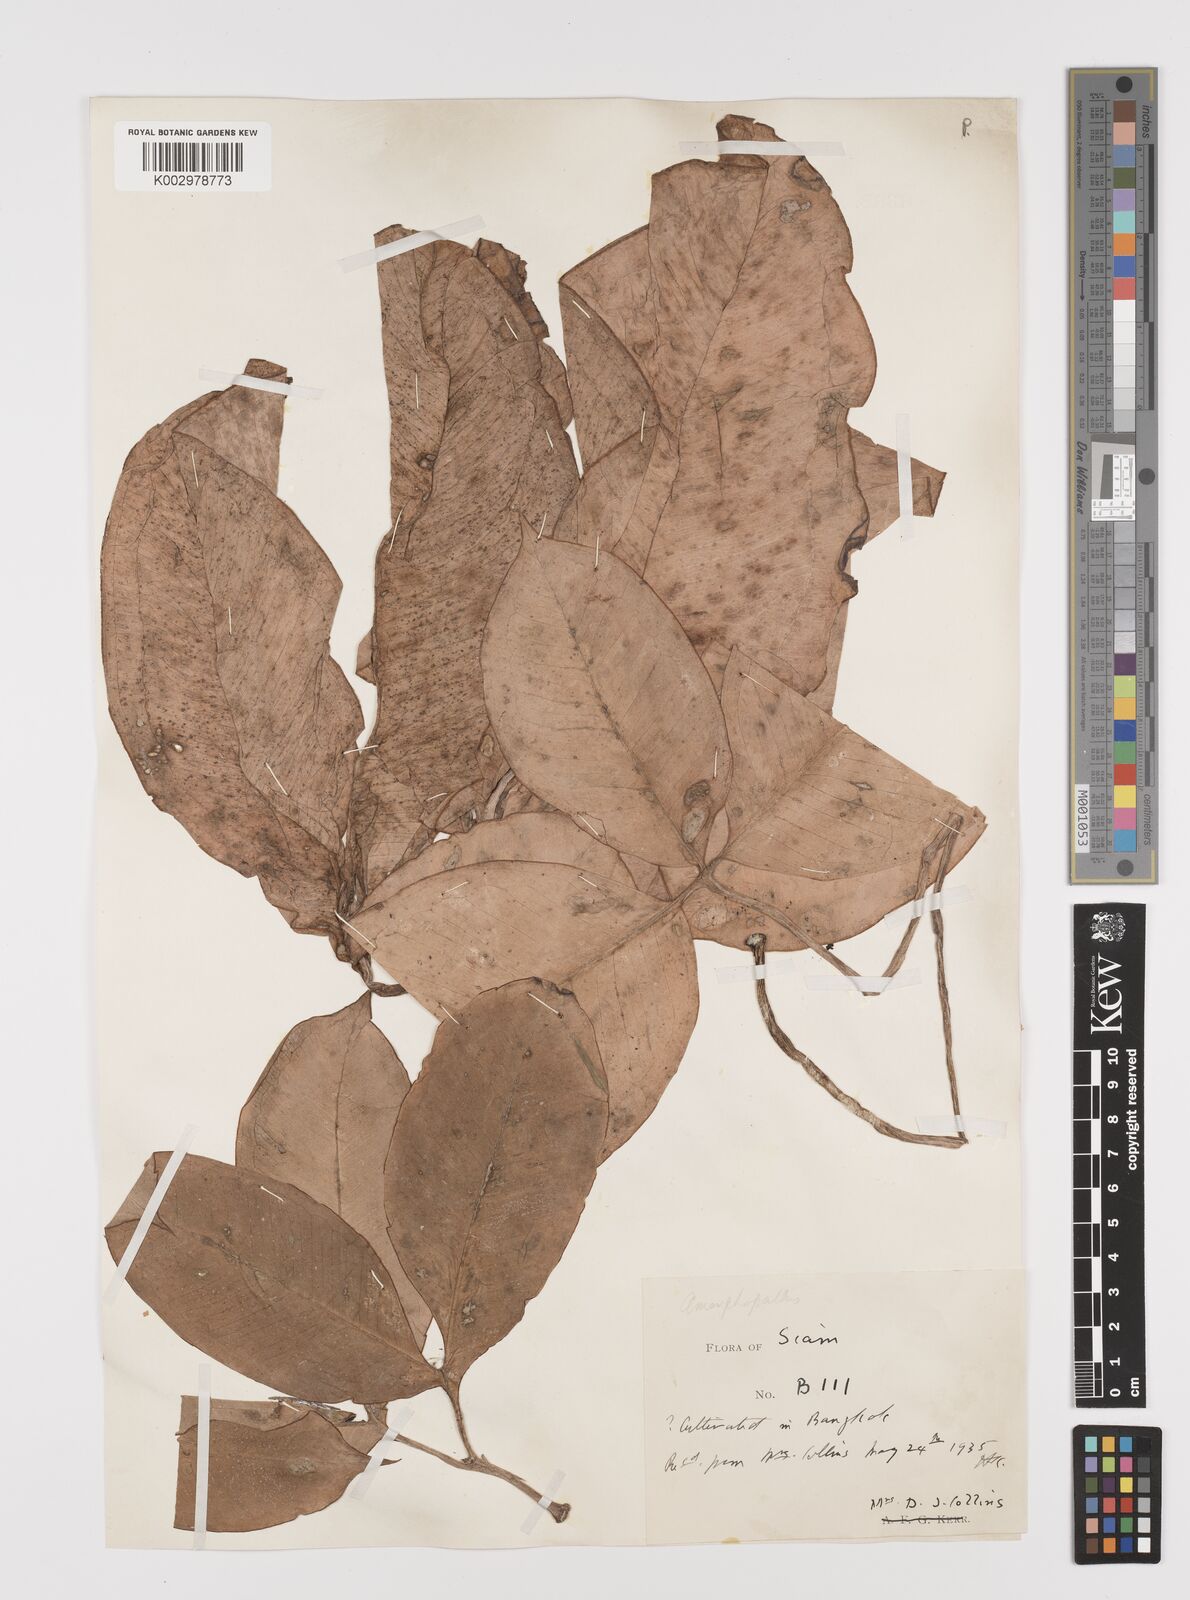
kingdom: Plantae
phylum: Tracheophyta
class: Liliopsida
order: Alismatales
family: Araceae
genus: Amorphophallus
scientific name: Amorphophallus
